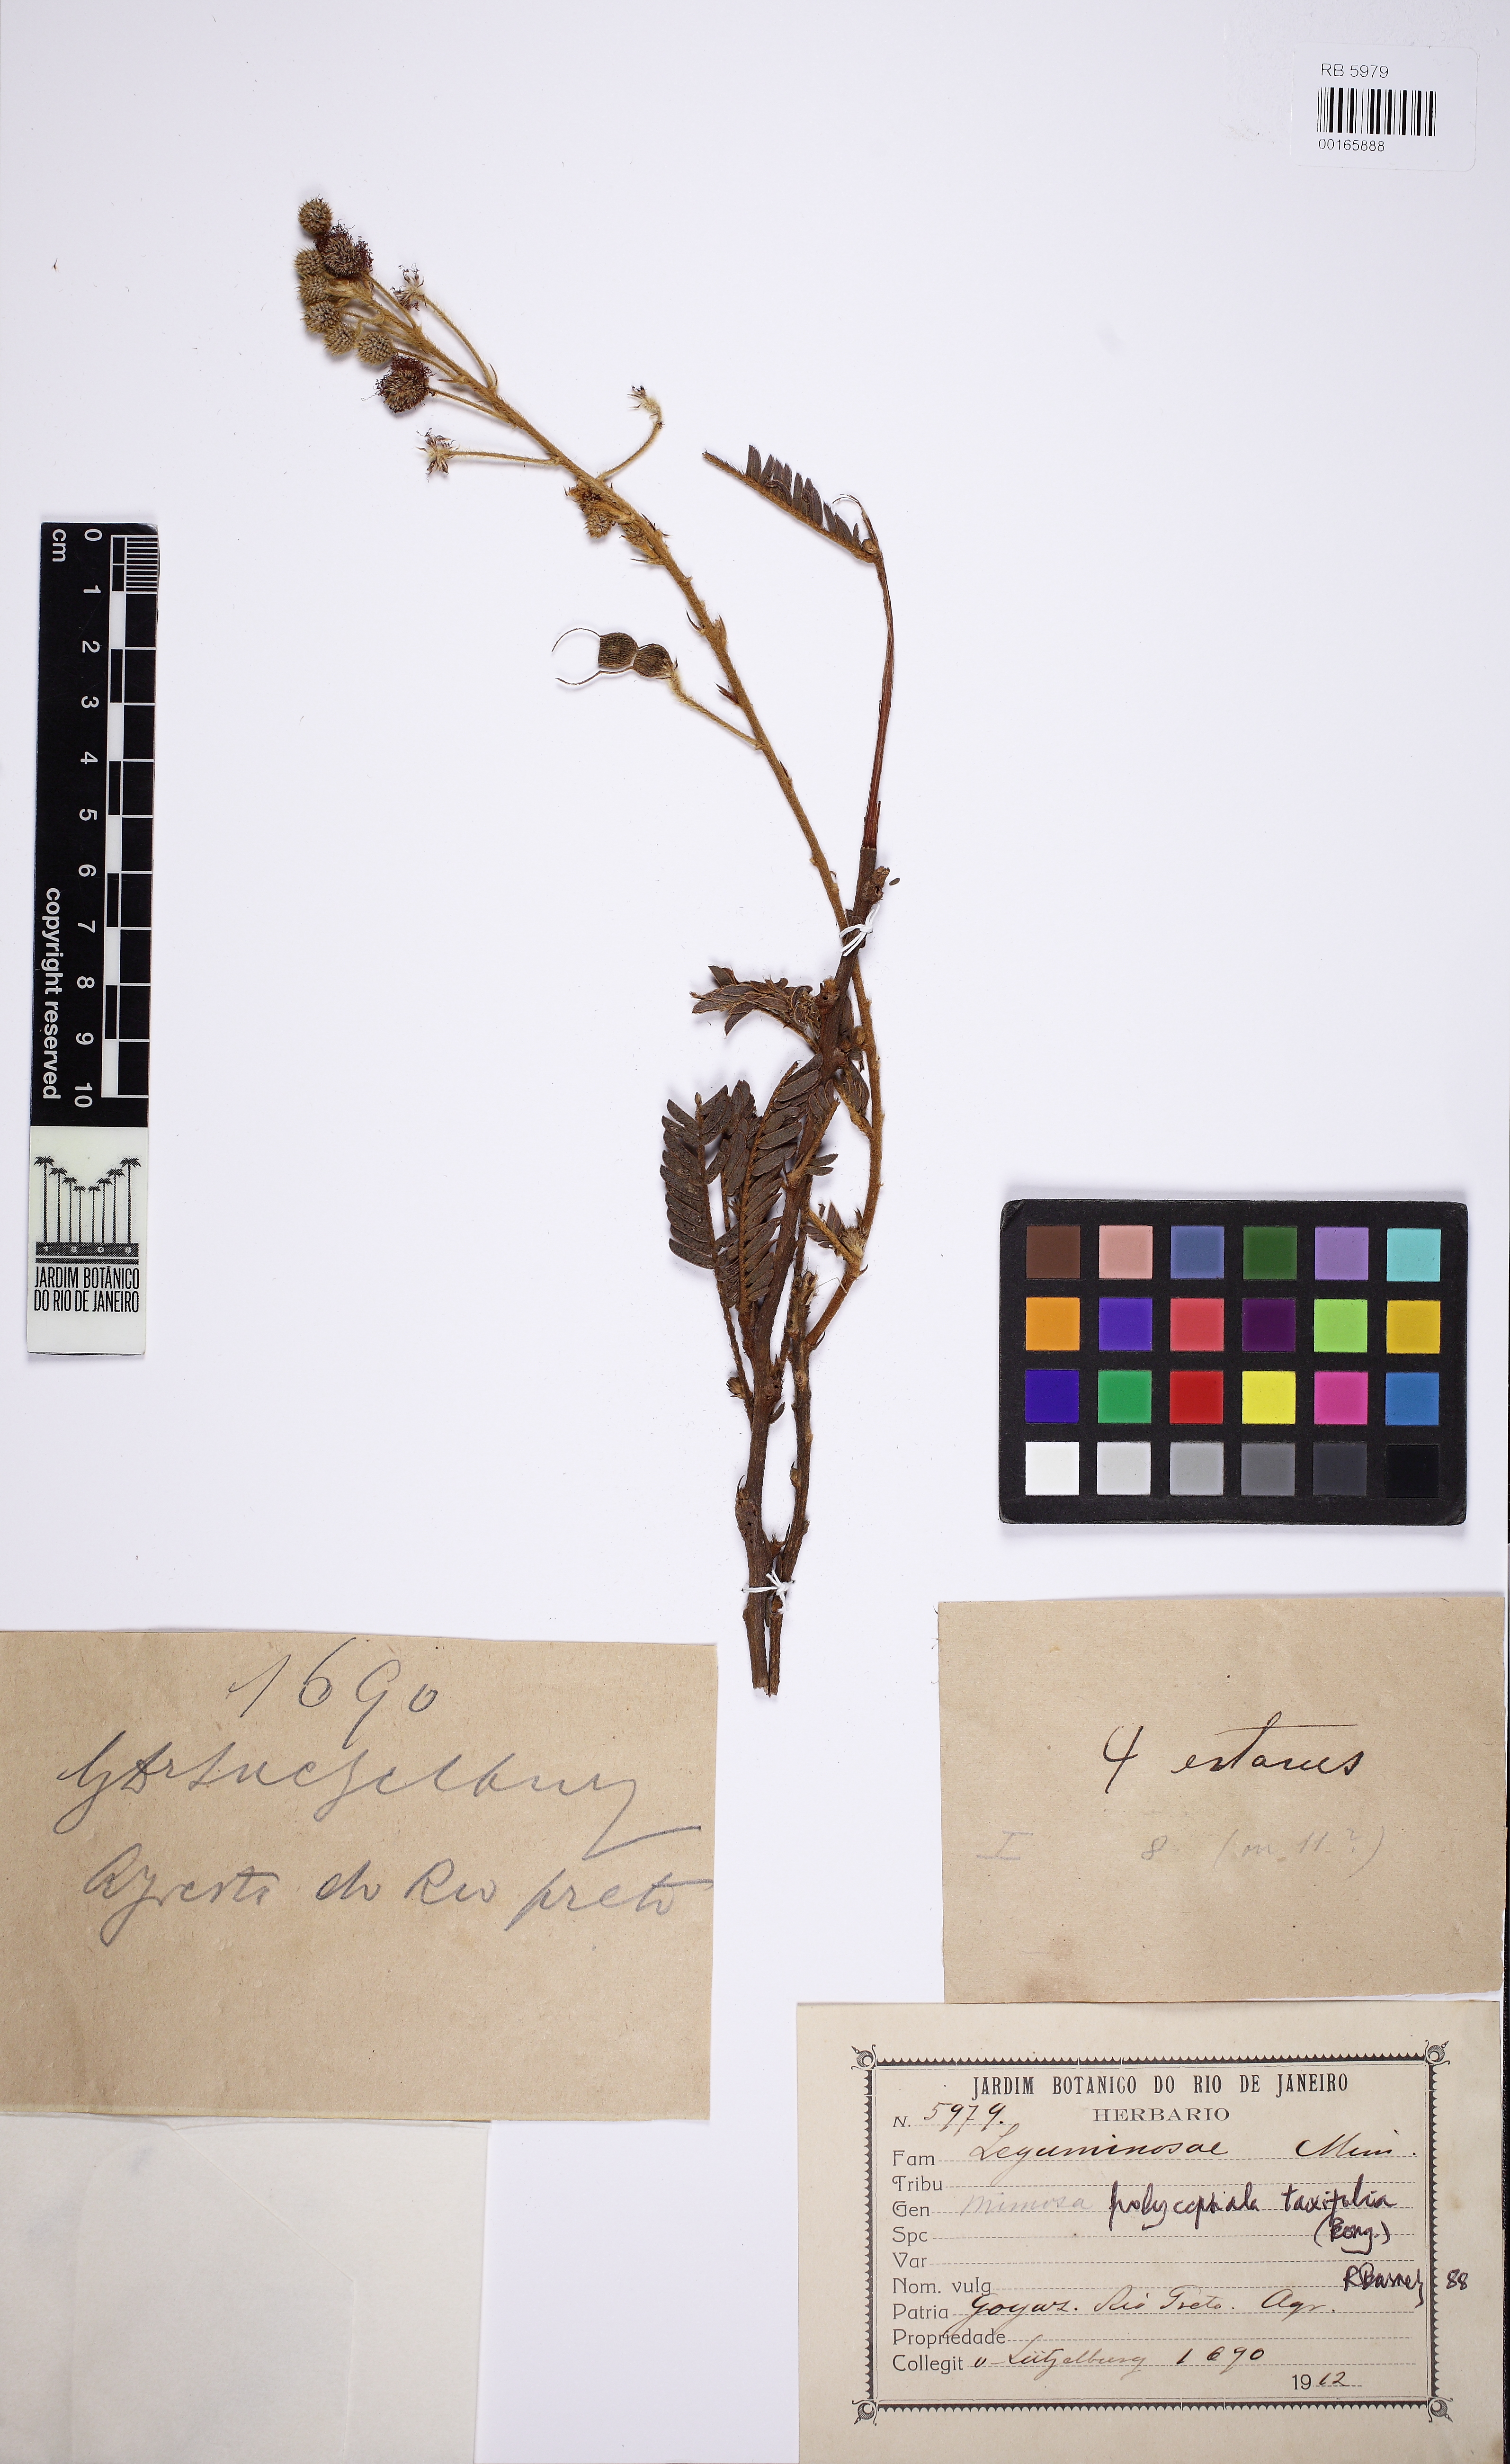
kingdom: Plantae
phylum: Tracheophyta
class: Magnoliopsida
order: Fabales
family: Fabaceae
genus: Mimosa
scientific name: Mimosa polycephala
